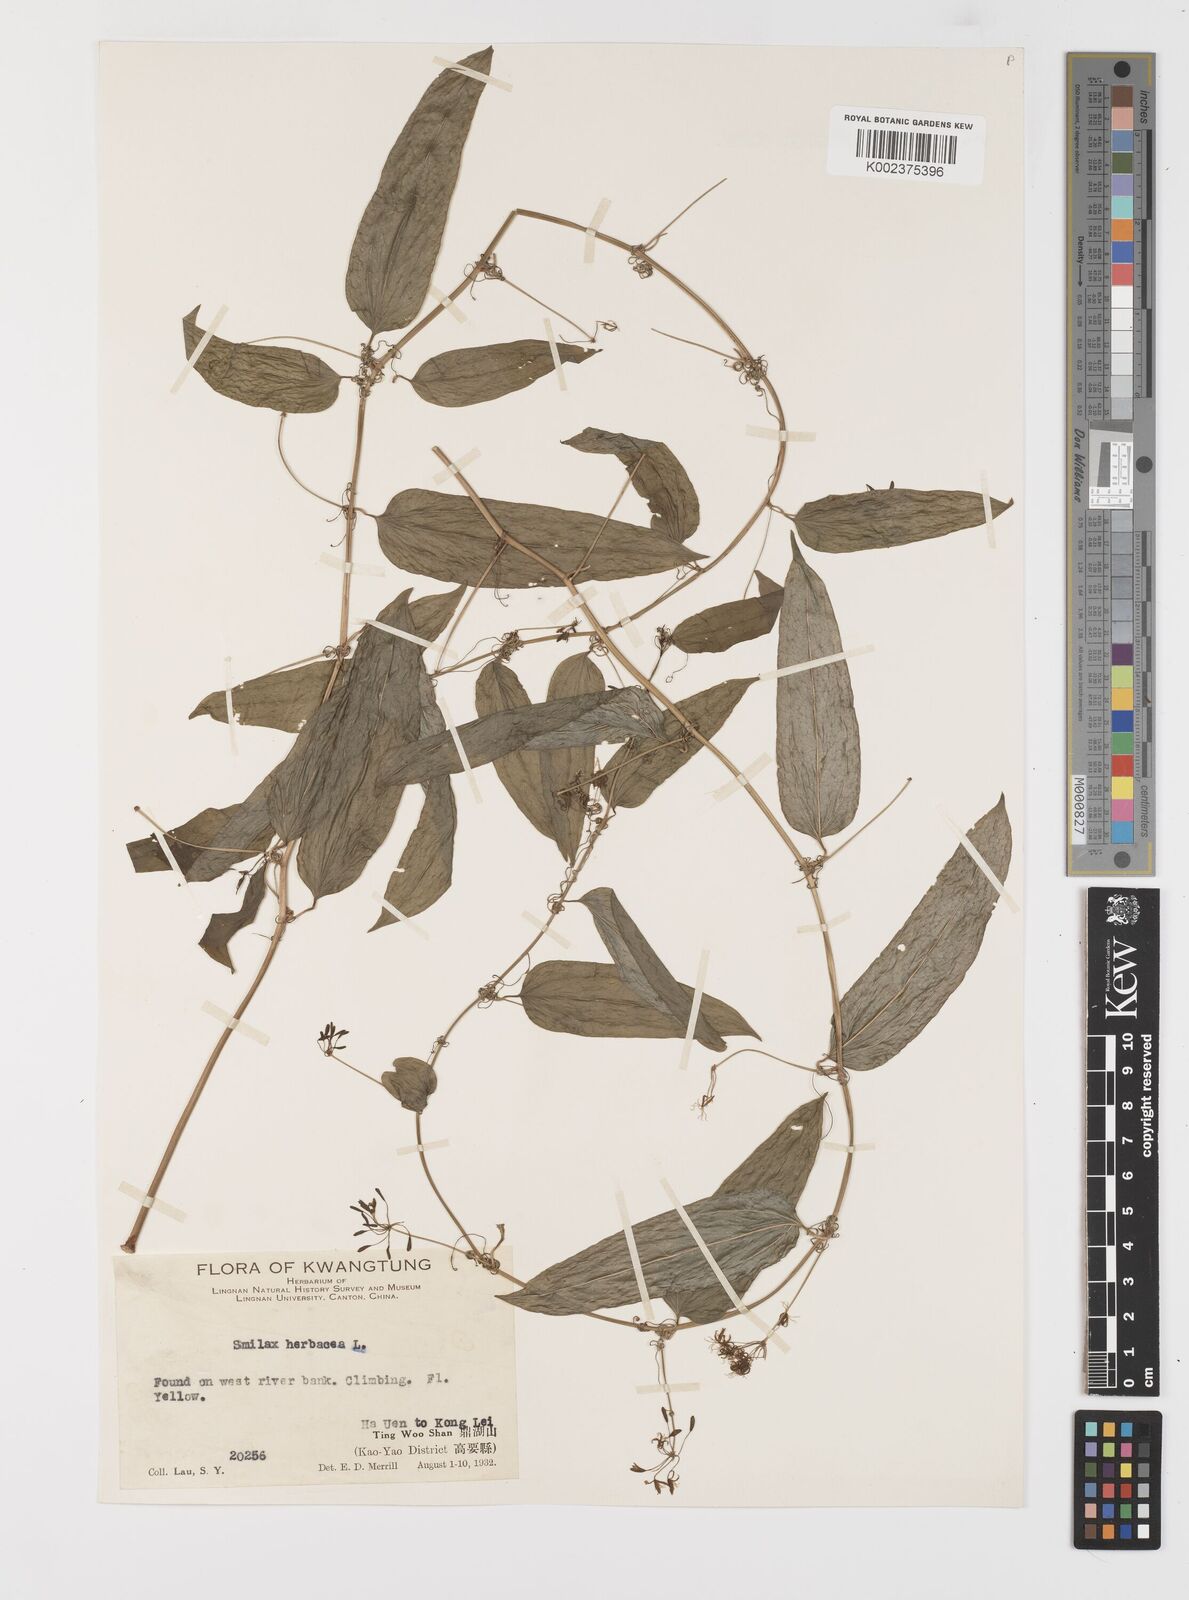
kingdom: Plantae
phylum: Tracheophyta
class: Liliopsida
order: Liliales
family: Smilacaceae
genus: Smilax
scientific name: Smilax riparia
